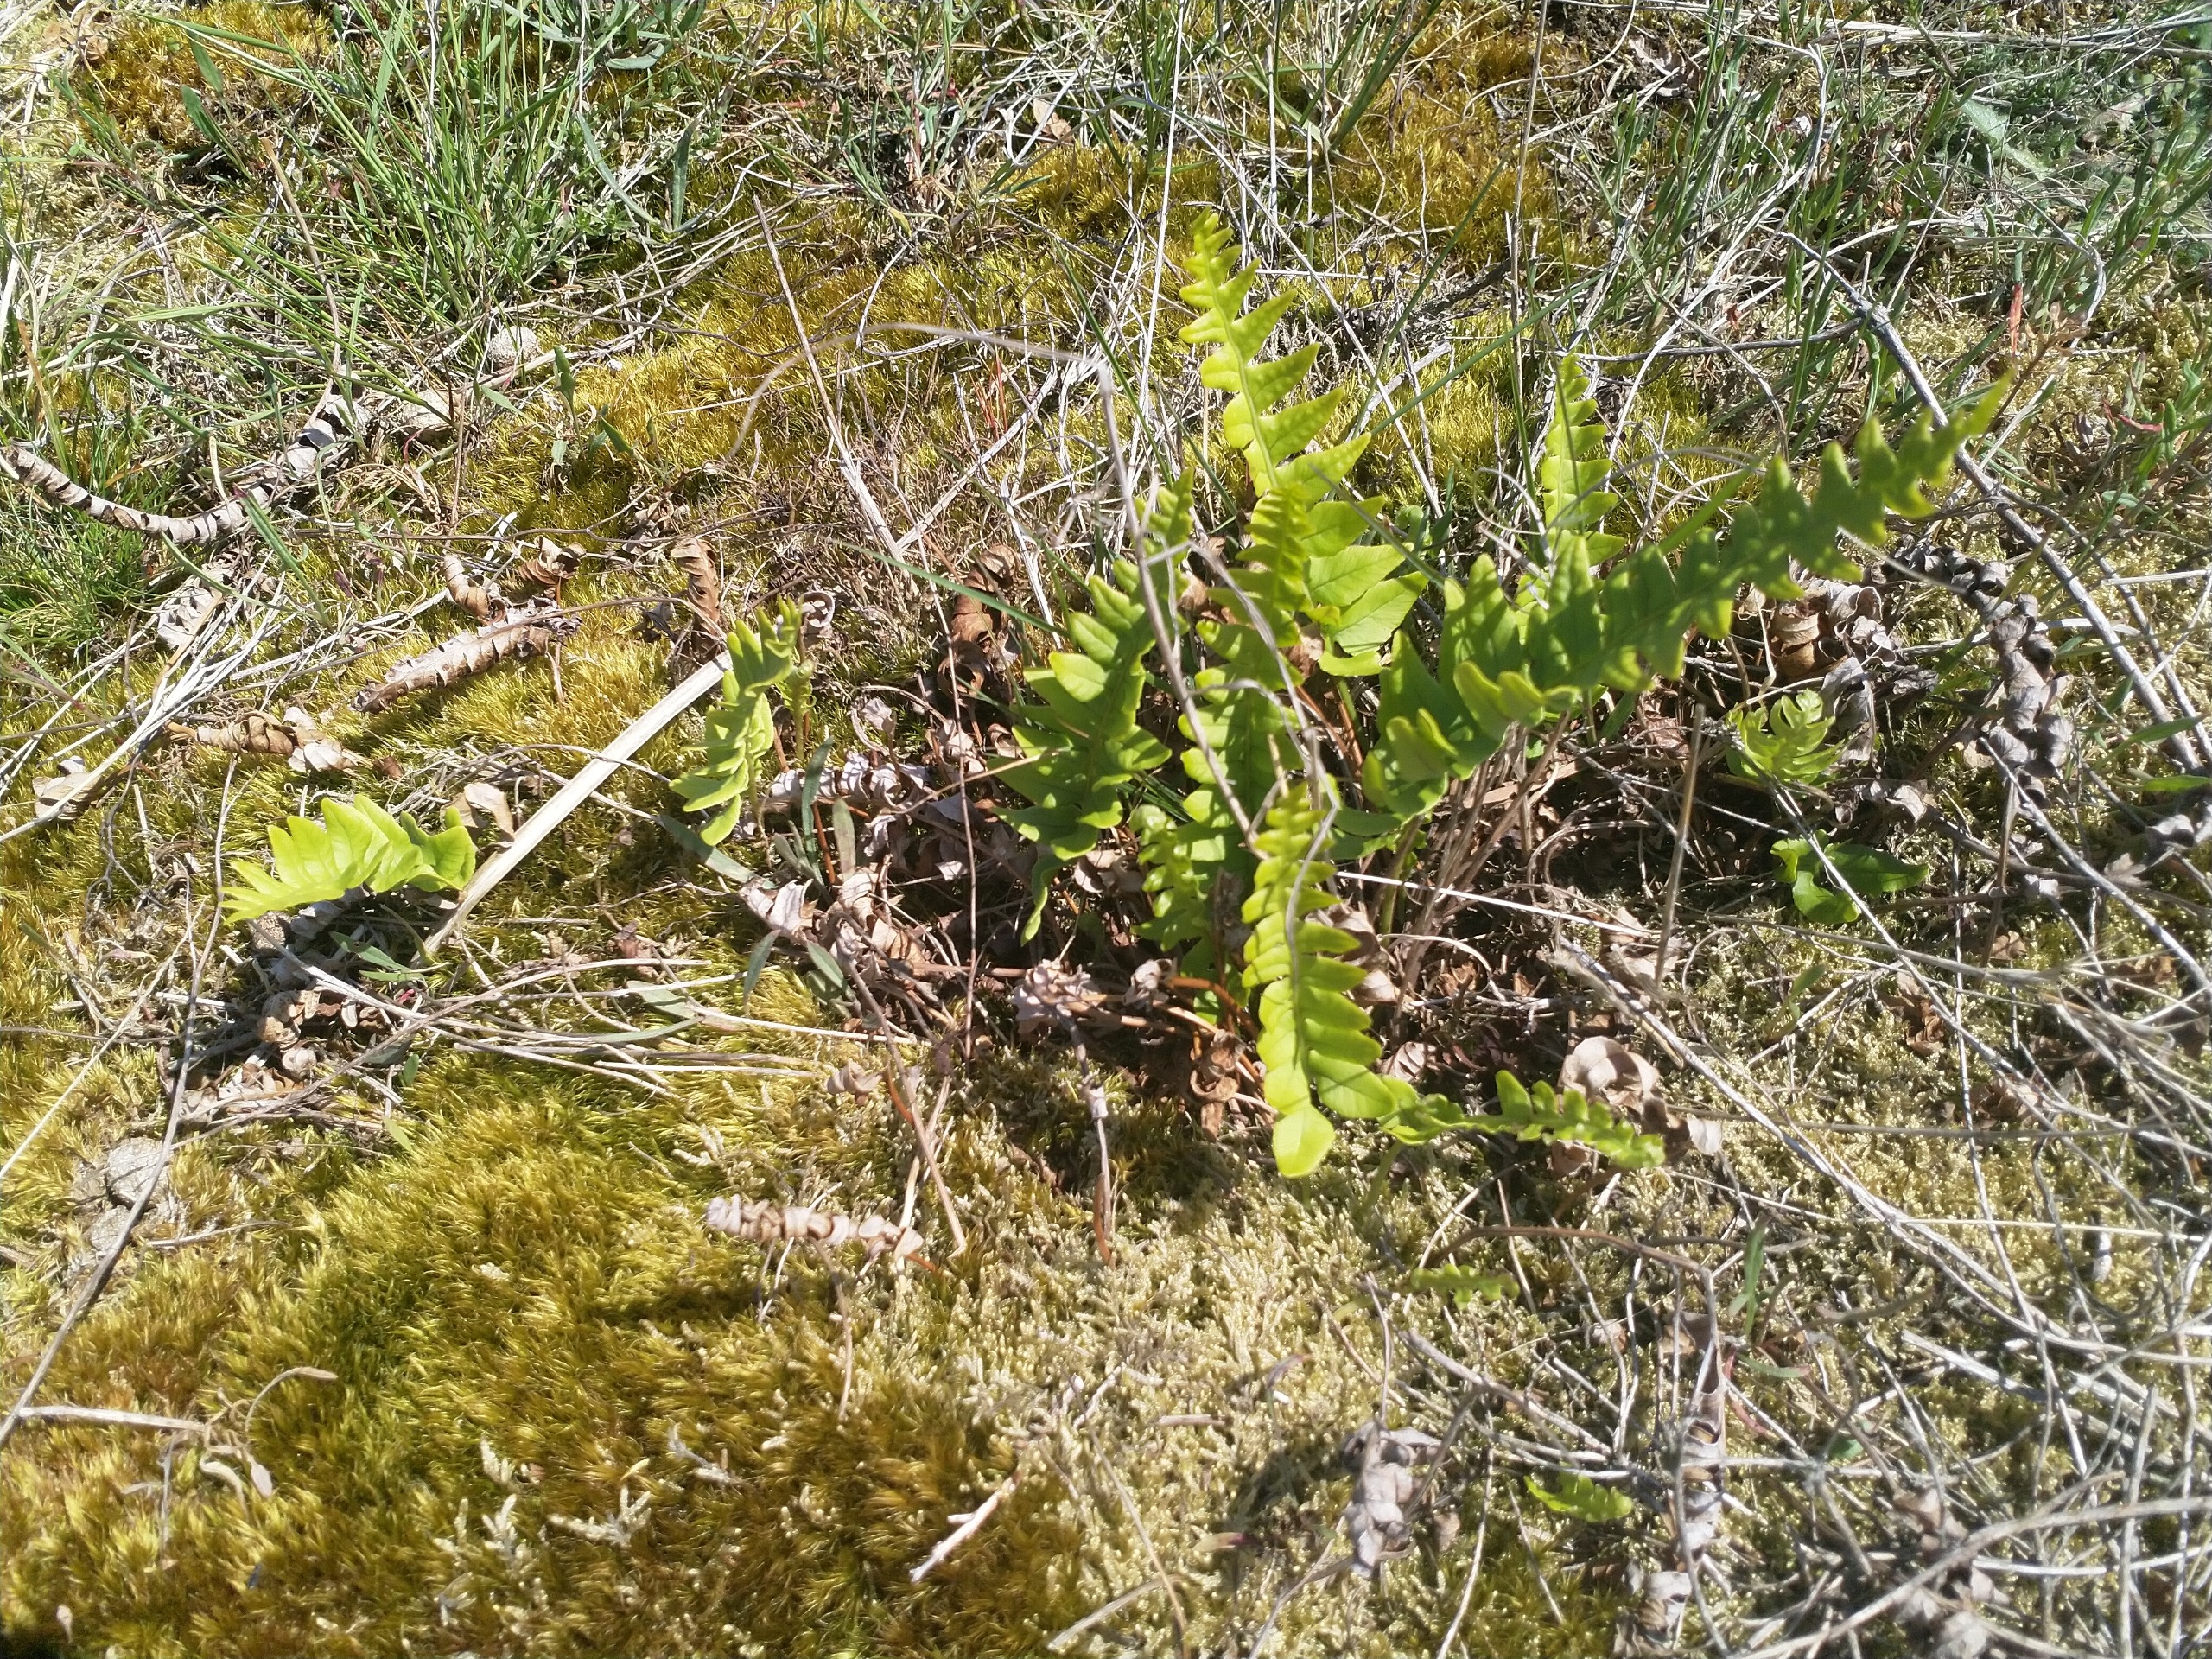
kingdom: Plantae
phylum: Tracheophyta
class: Polypodiopsida
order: Polypodiales
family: Polypodiaceae
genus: Polypodium
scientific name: Polypodium vulgare
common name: Almindelig engelsød
